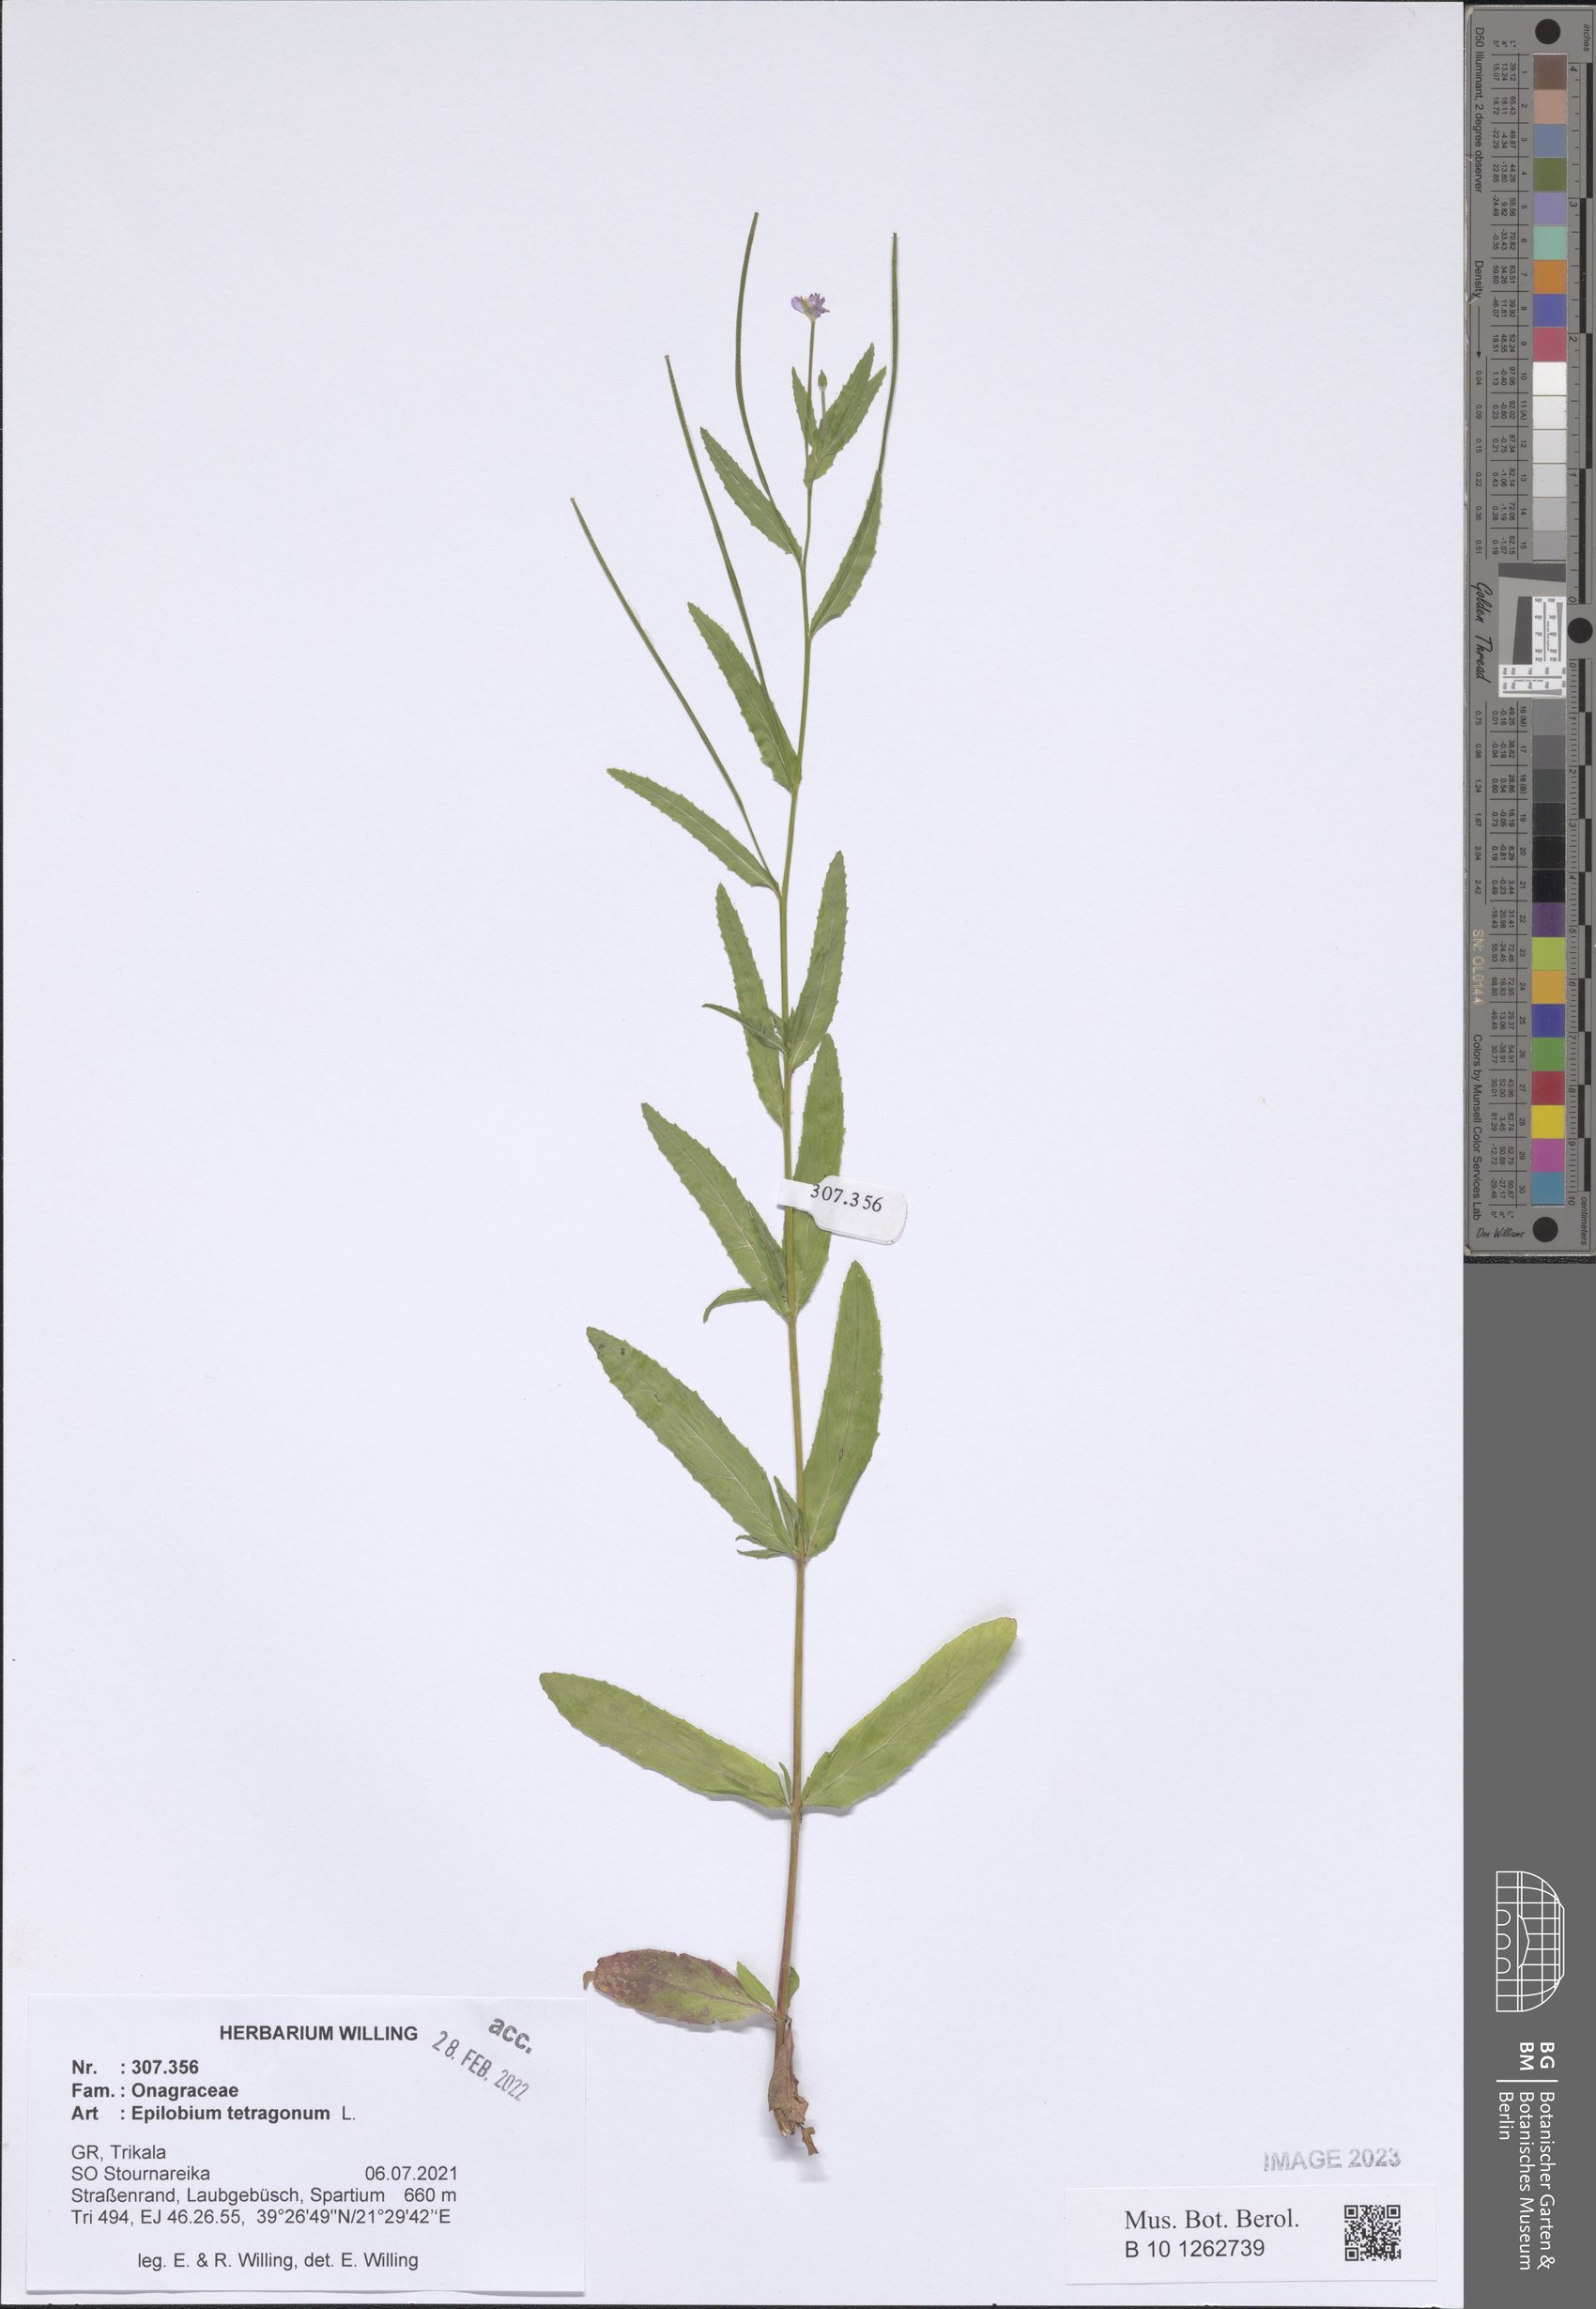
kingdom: Plantae
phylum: Tracheophyta
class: Magnoliopsida
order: Myrtales
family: Onagraceae
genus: Epilobium
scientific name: Epilobium tetragonum
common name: Square-stemmed willowherb
